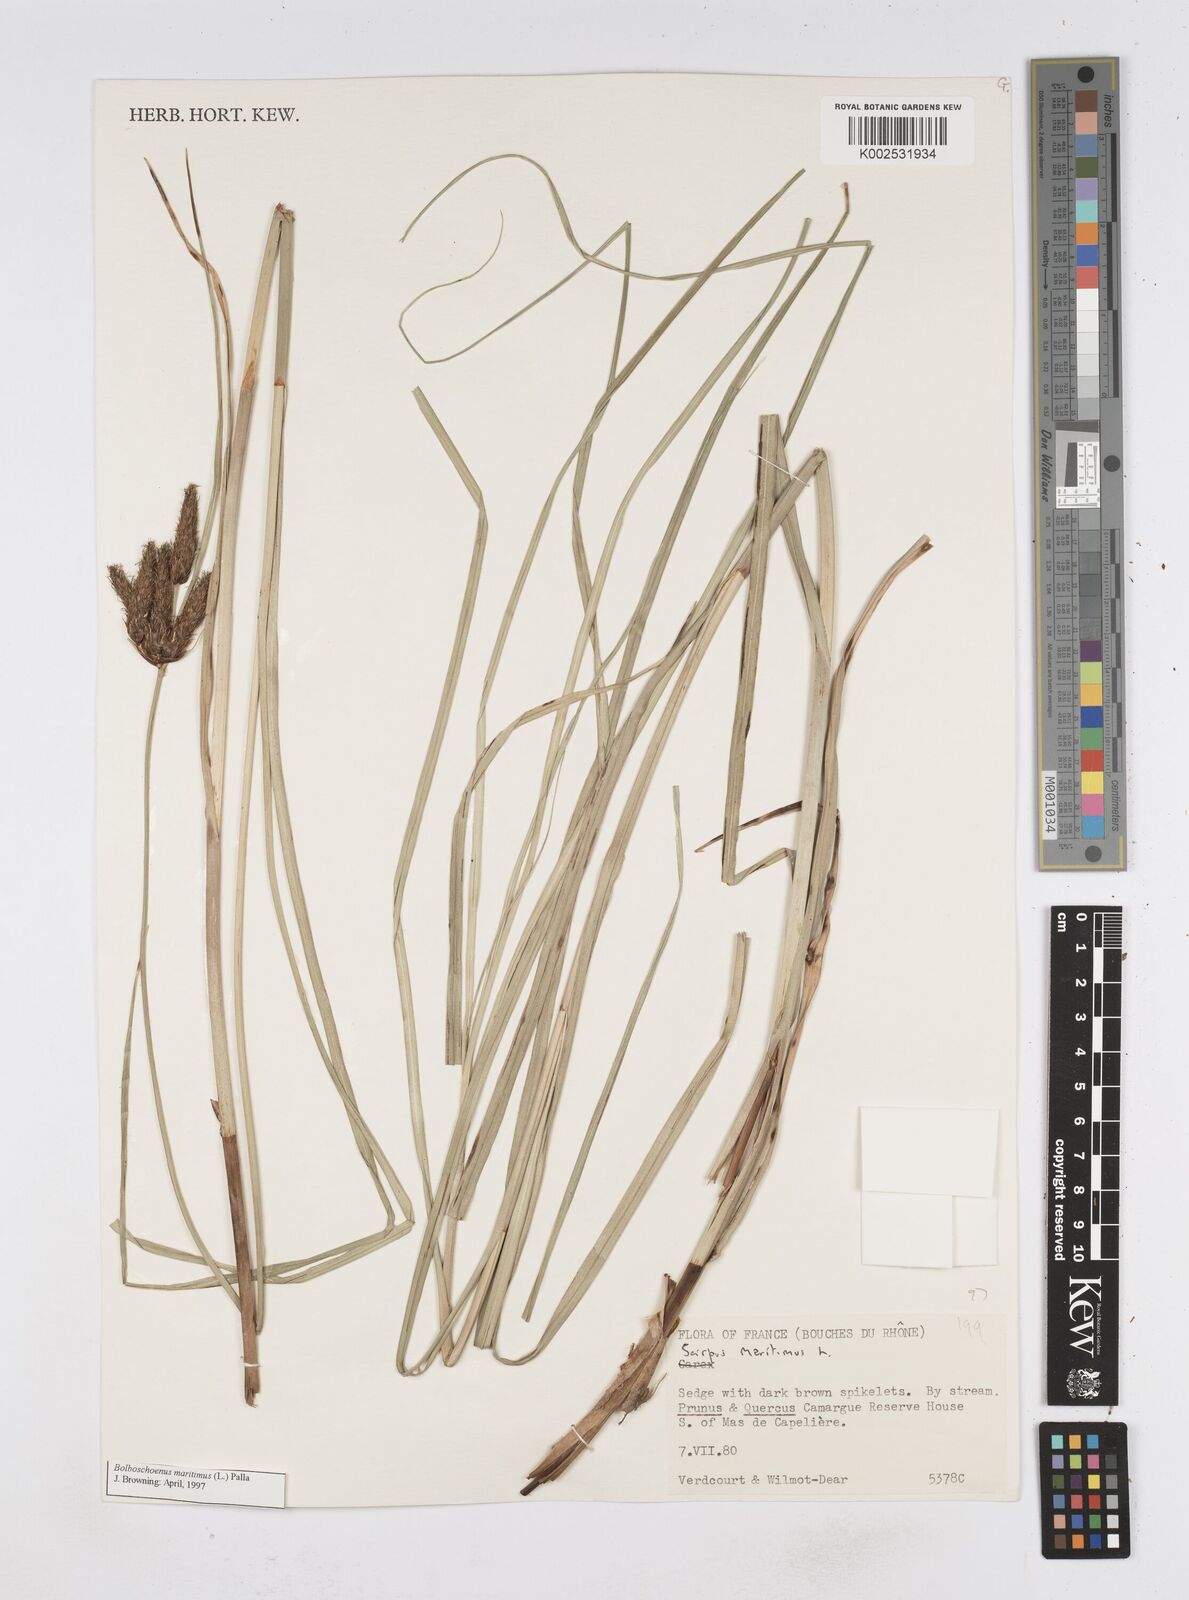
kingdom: Plantae
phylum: Tracheophyta
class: Liliopsida
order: Poales
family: Cyperaceae
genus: Bolboschoenus
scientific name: Bolboschoenus maritimus
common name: Sea club-rush
